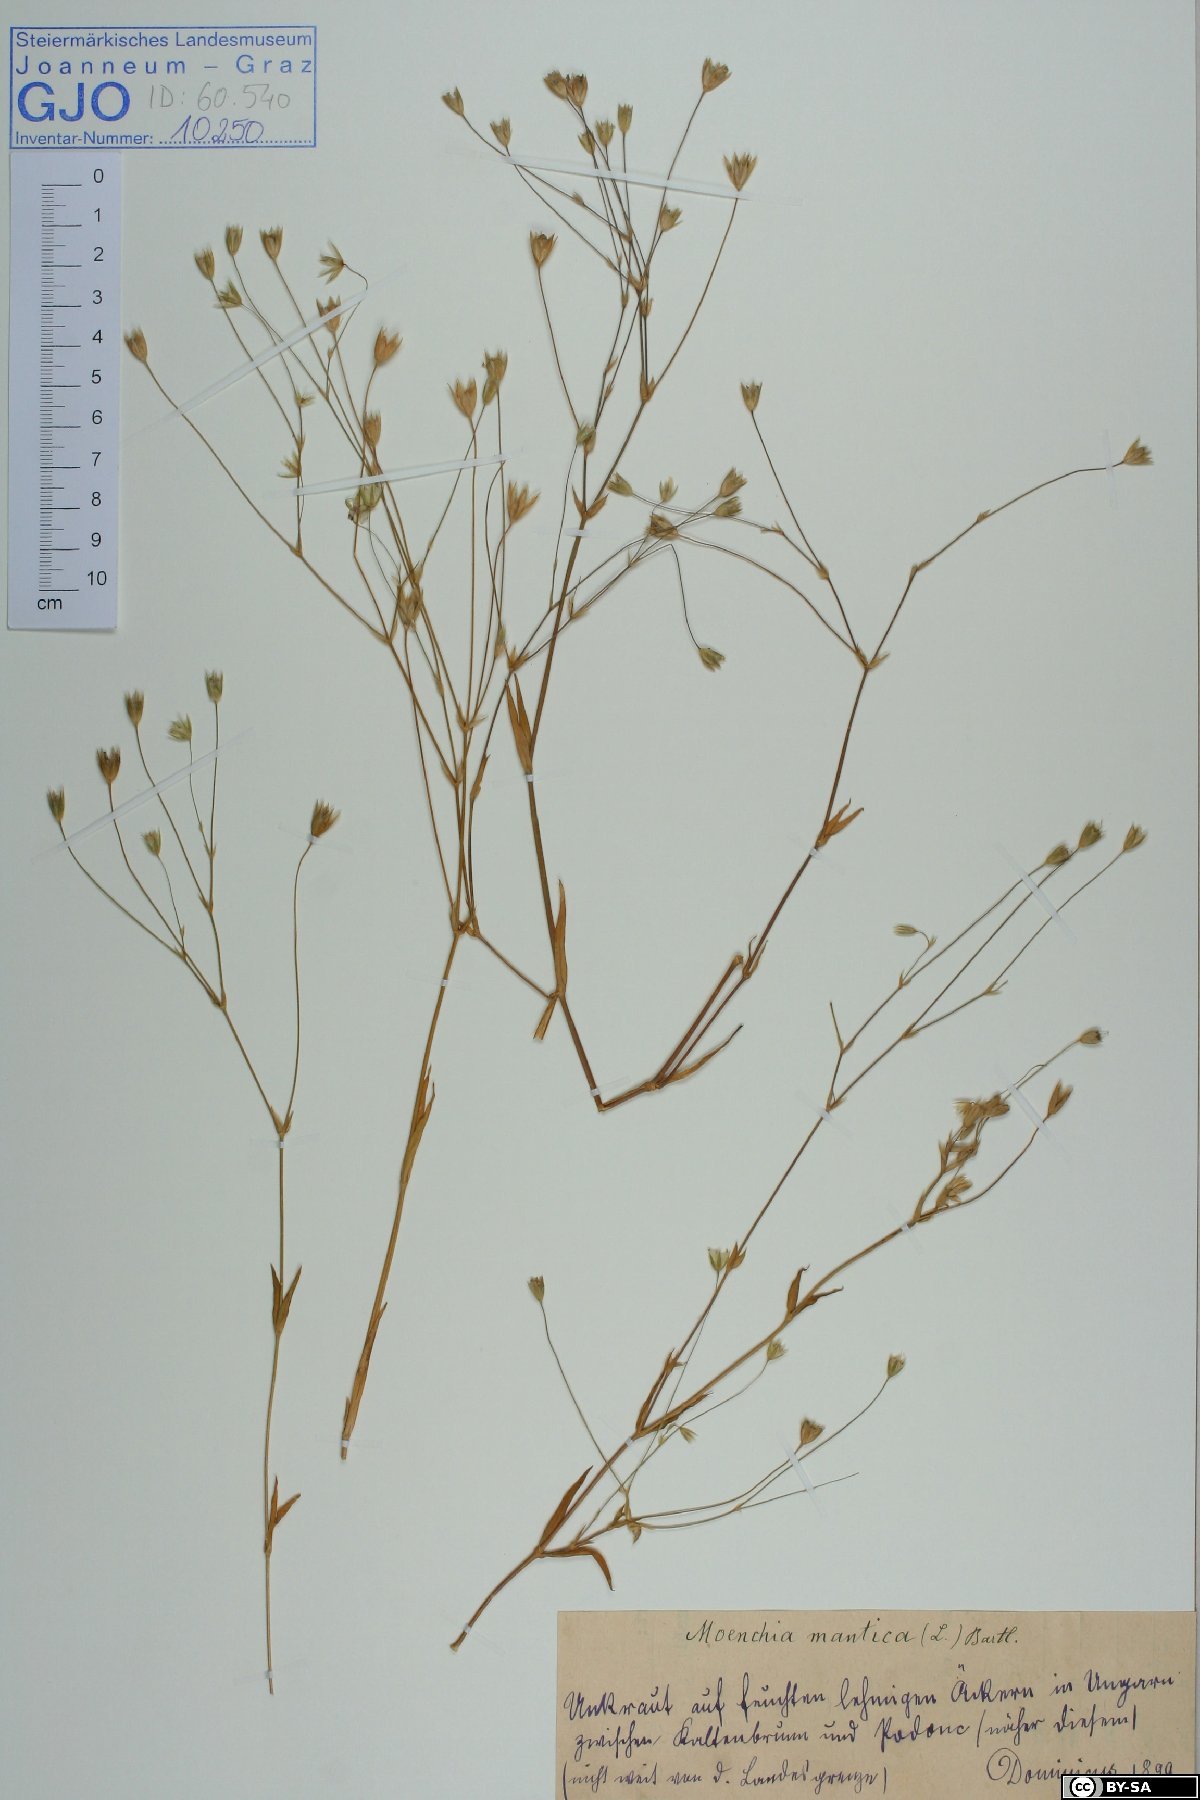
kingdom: Plantae
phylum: Tracheophyta
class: Magnoliopsida
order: Caryophyllales
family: Caryophyllaceae
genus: Moenchia
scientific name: Moenchia mantica
